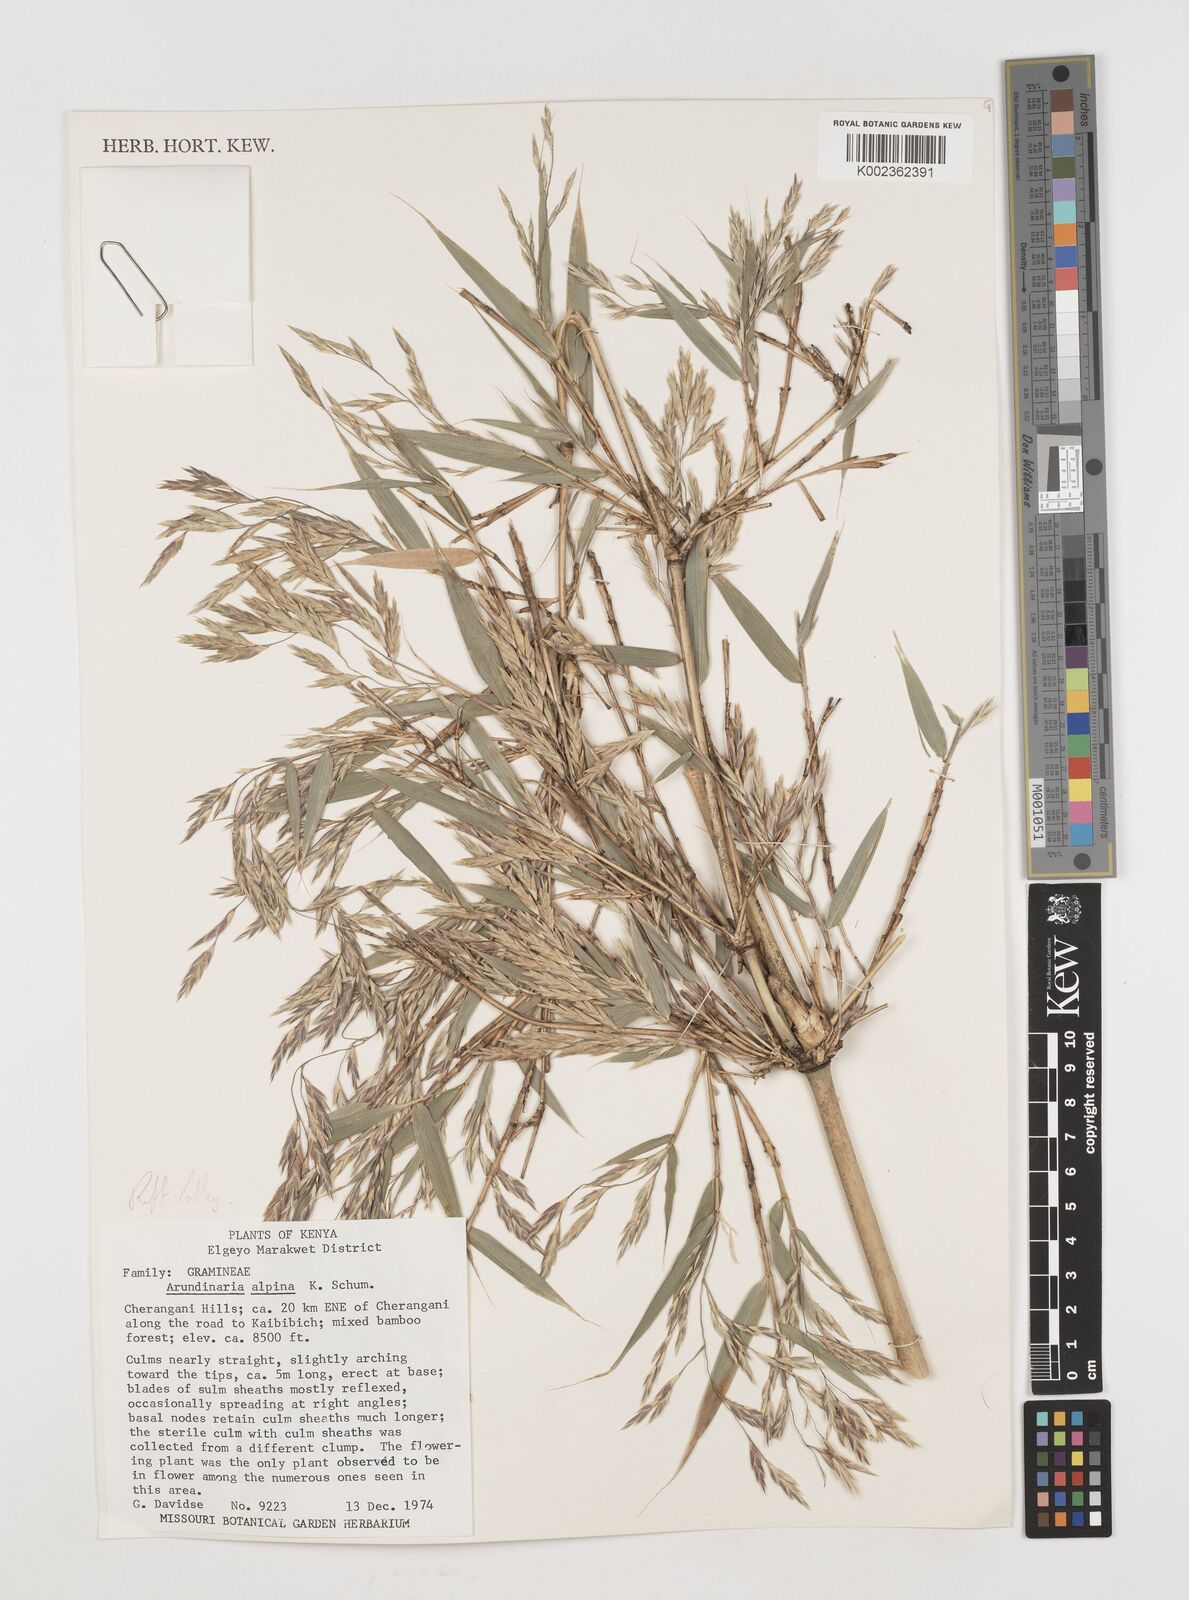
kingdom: Plantae
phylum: Tracheophyta
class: Liliopsida
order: Poales
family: Poaceae
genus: Oldeania
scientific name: Oldeania alpina
